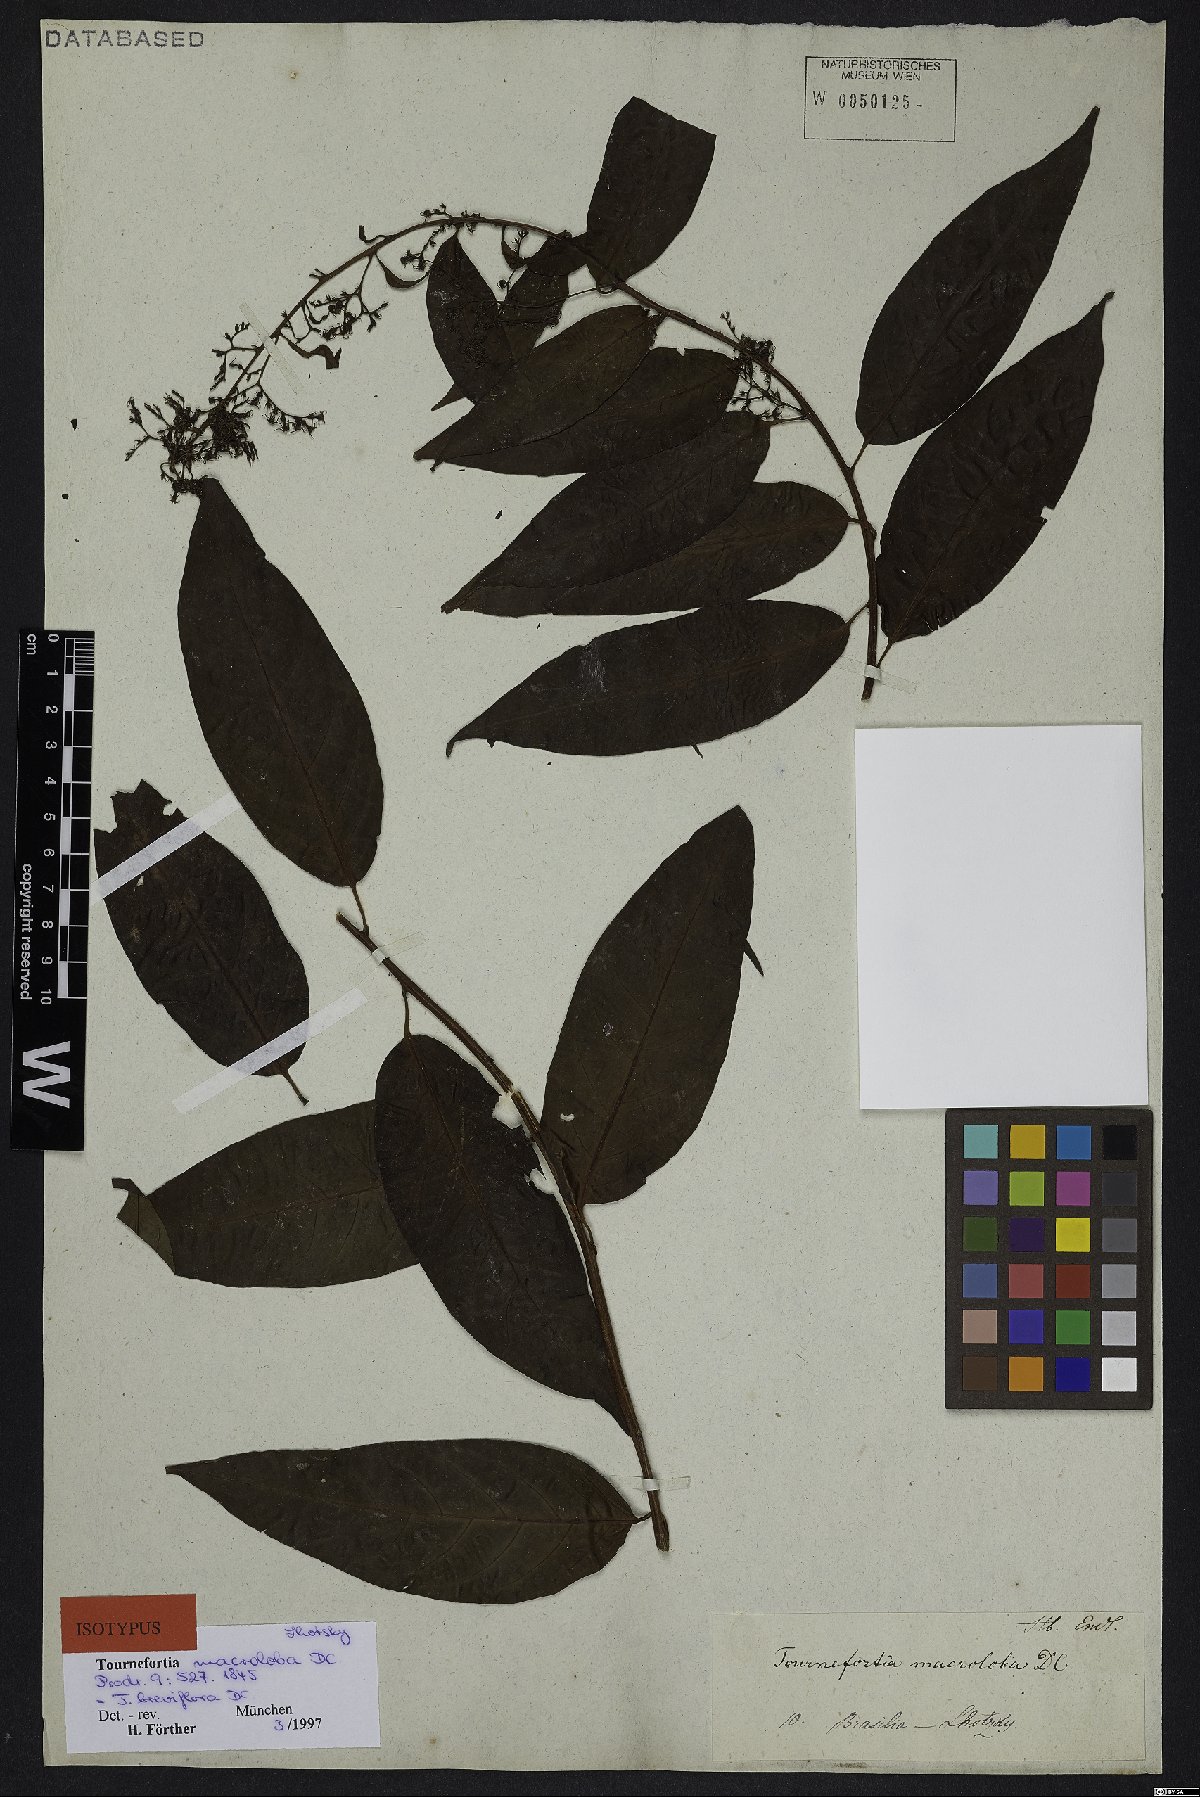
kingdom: Plantae
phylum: Tracheophyta
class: Magnoliopsida
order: Boraginales
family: Heliotropiaceae
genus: Myriopus
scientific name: Myriopus breviflorus
